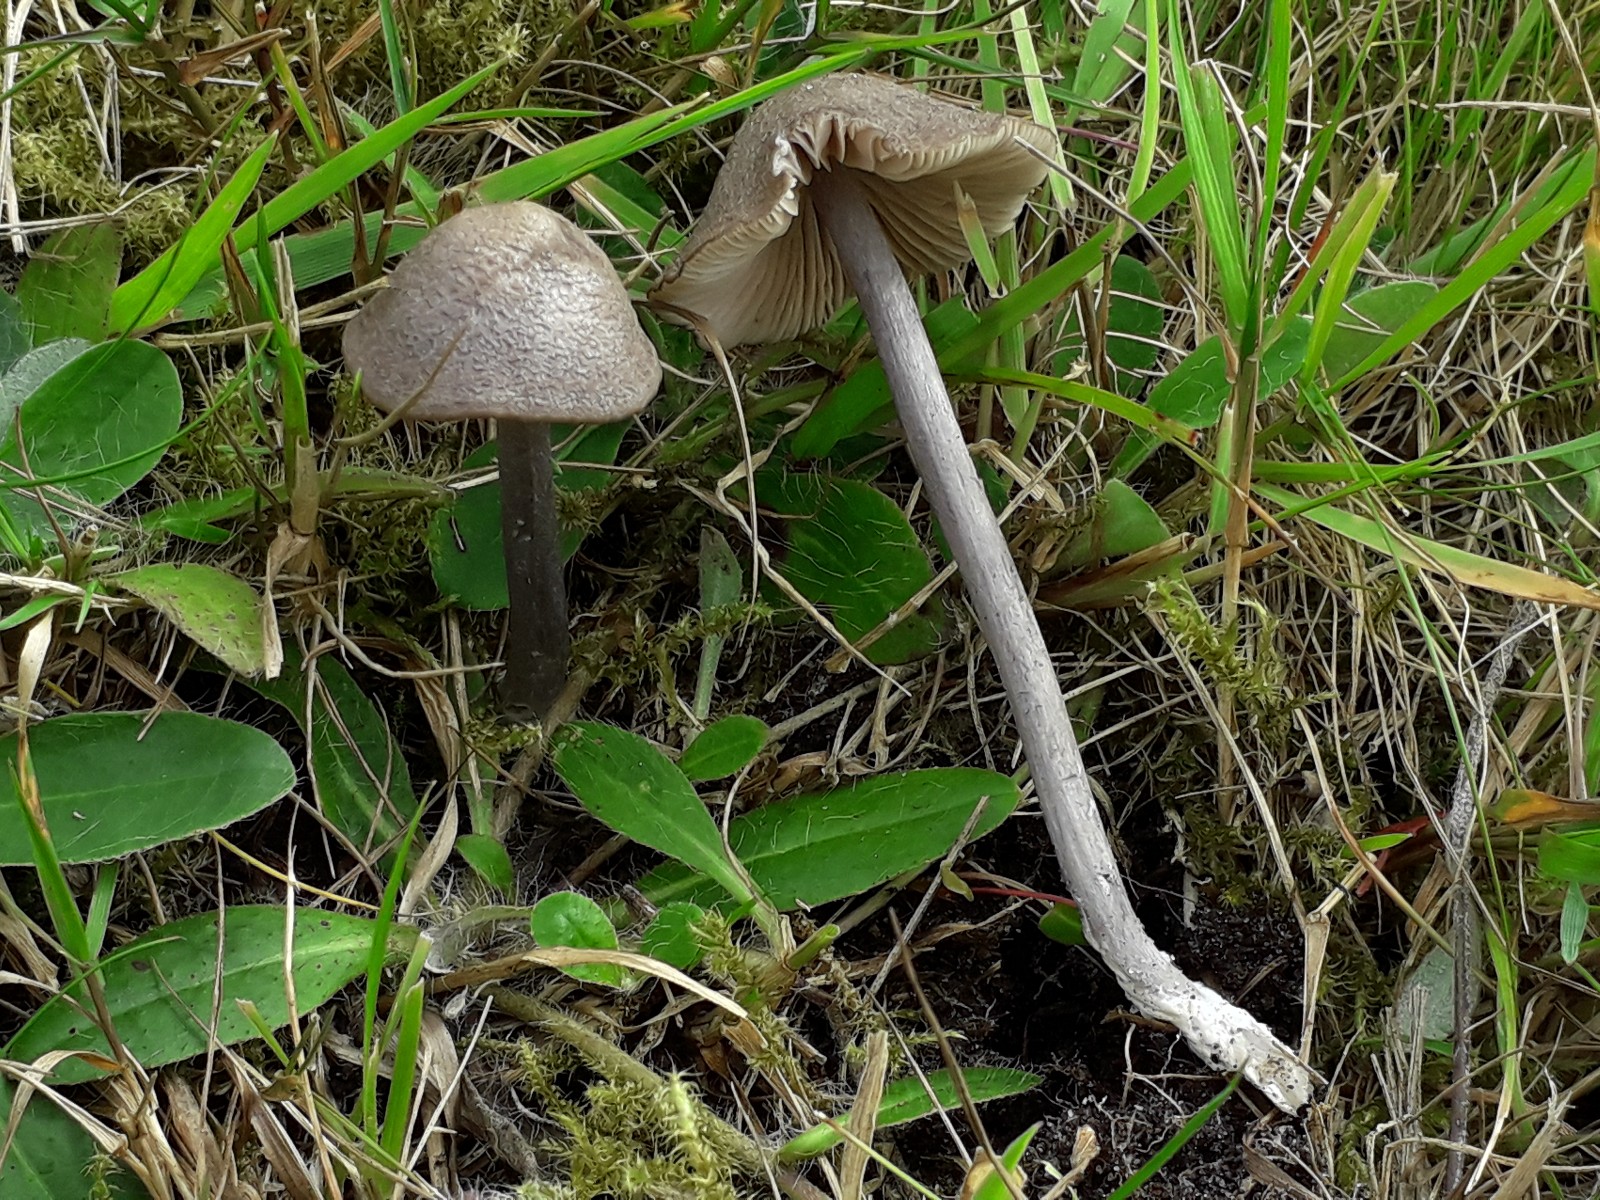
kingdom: Fungi
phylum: Basidiomycota
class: Agaricomycetes
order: Agaricales
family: Entolomataceae
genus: Entoloma
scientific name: Entoloma griseocyaneum
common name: gråblå rødblad
